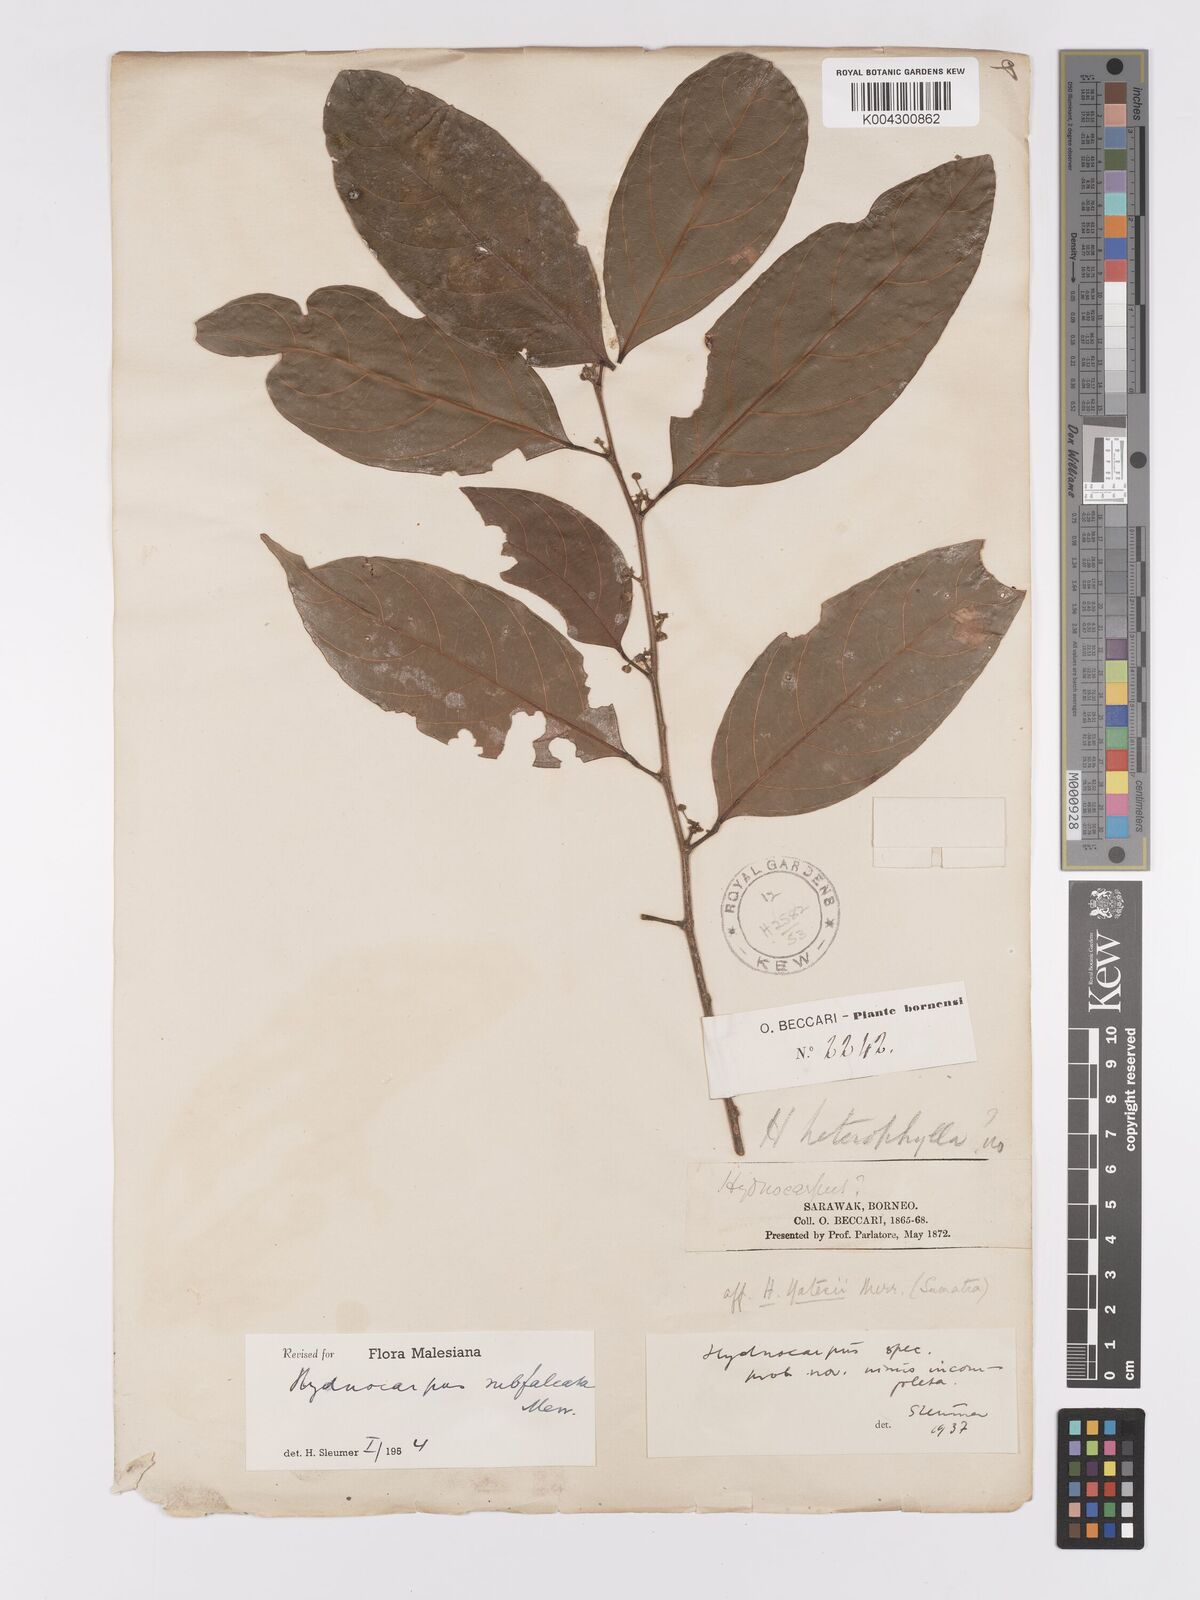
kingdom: Plantae
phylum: Tracheophyta
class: Magnoliopsida
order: Malpighiales
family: Achariaceae
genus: Hydnocarpus
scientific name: Hydnocarpus subfalcatus
